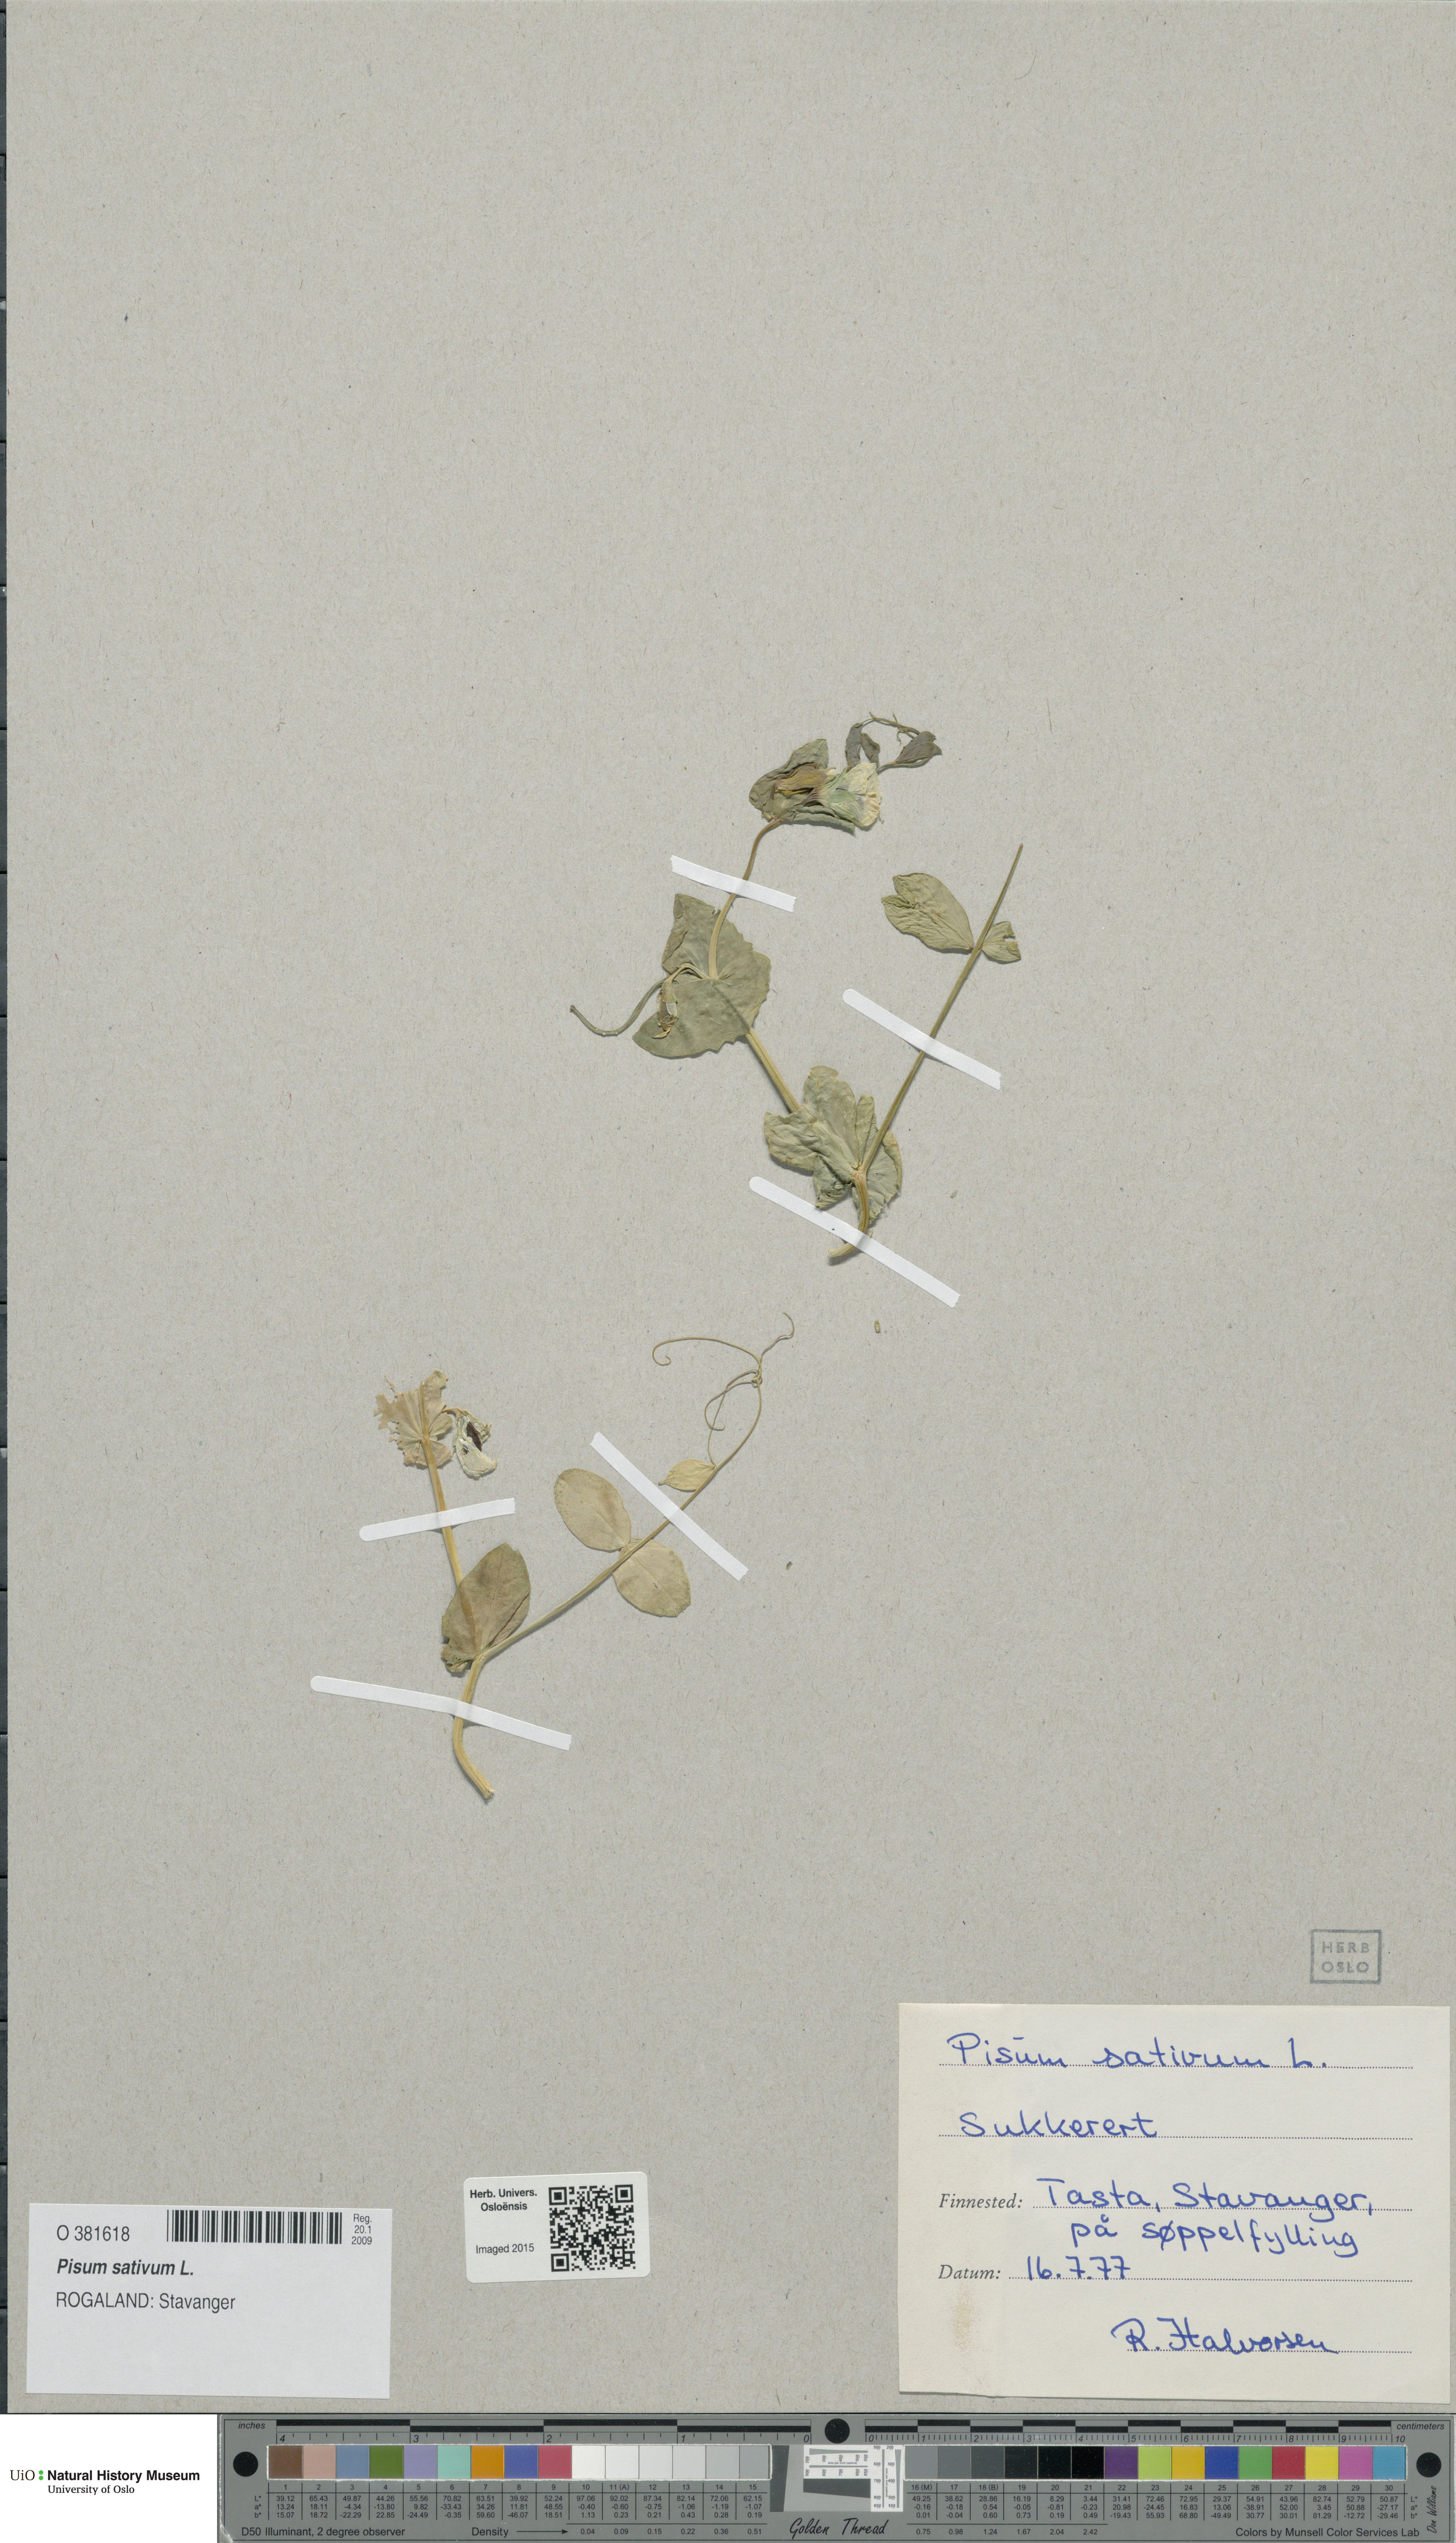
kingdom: Plantae
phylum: Tracheophyta
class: Magnoliopsida
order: Fabales
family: Fabaceae
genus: Lathyrus
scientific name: Lathyrus oleraceus
